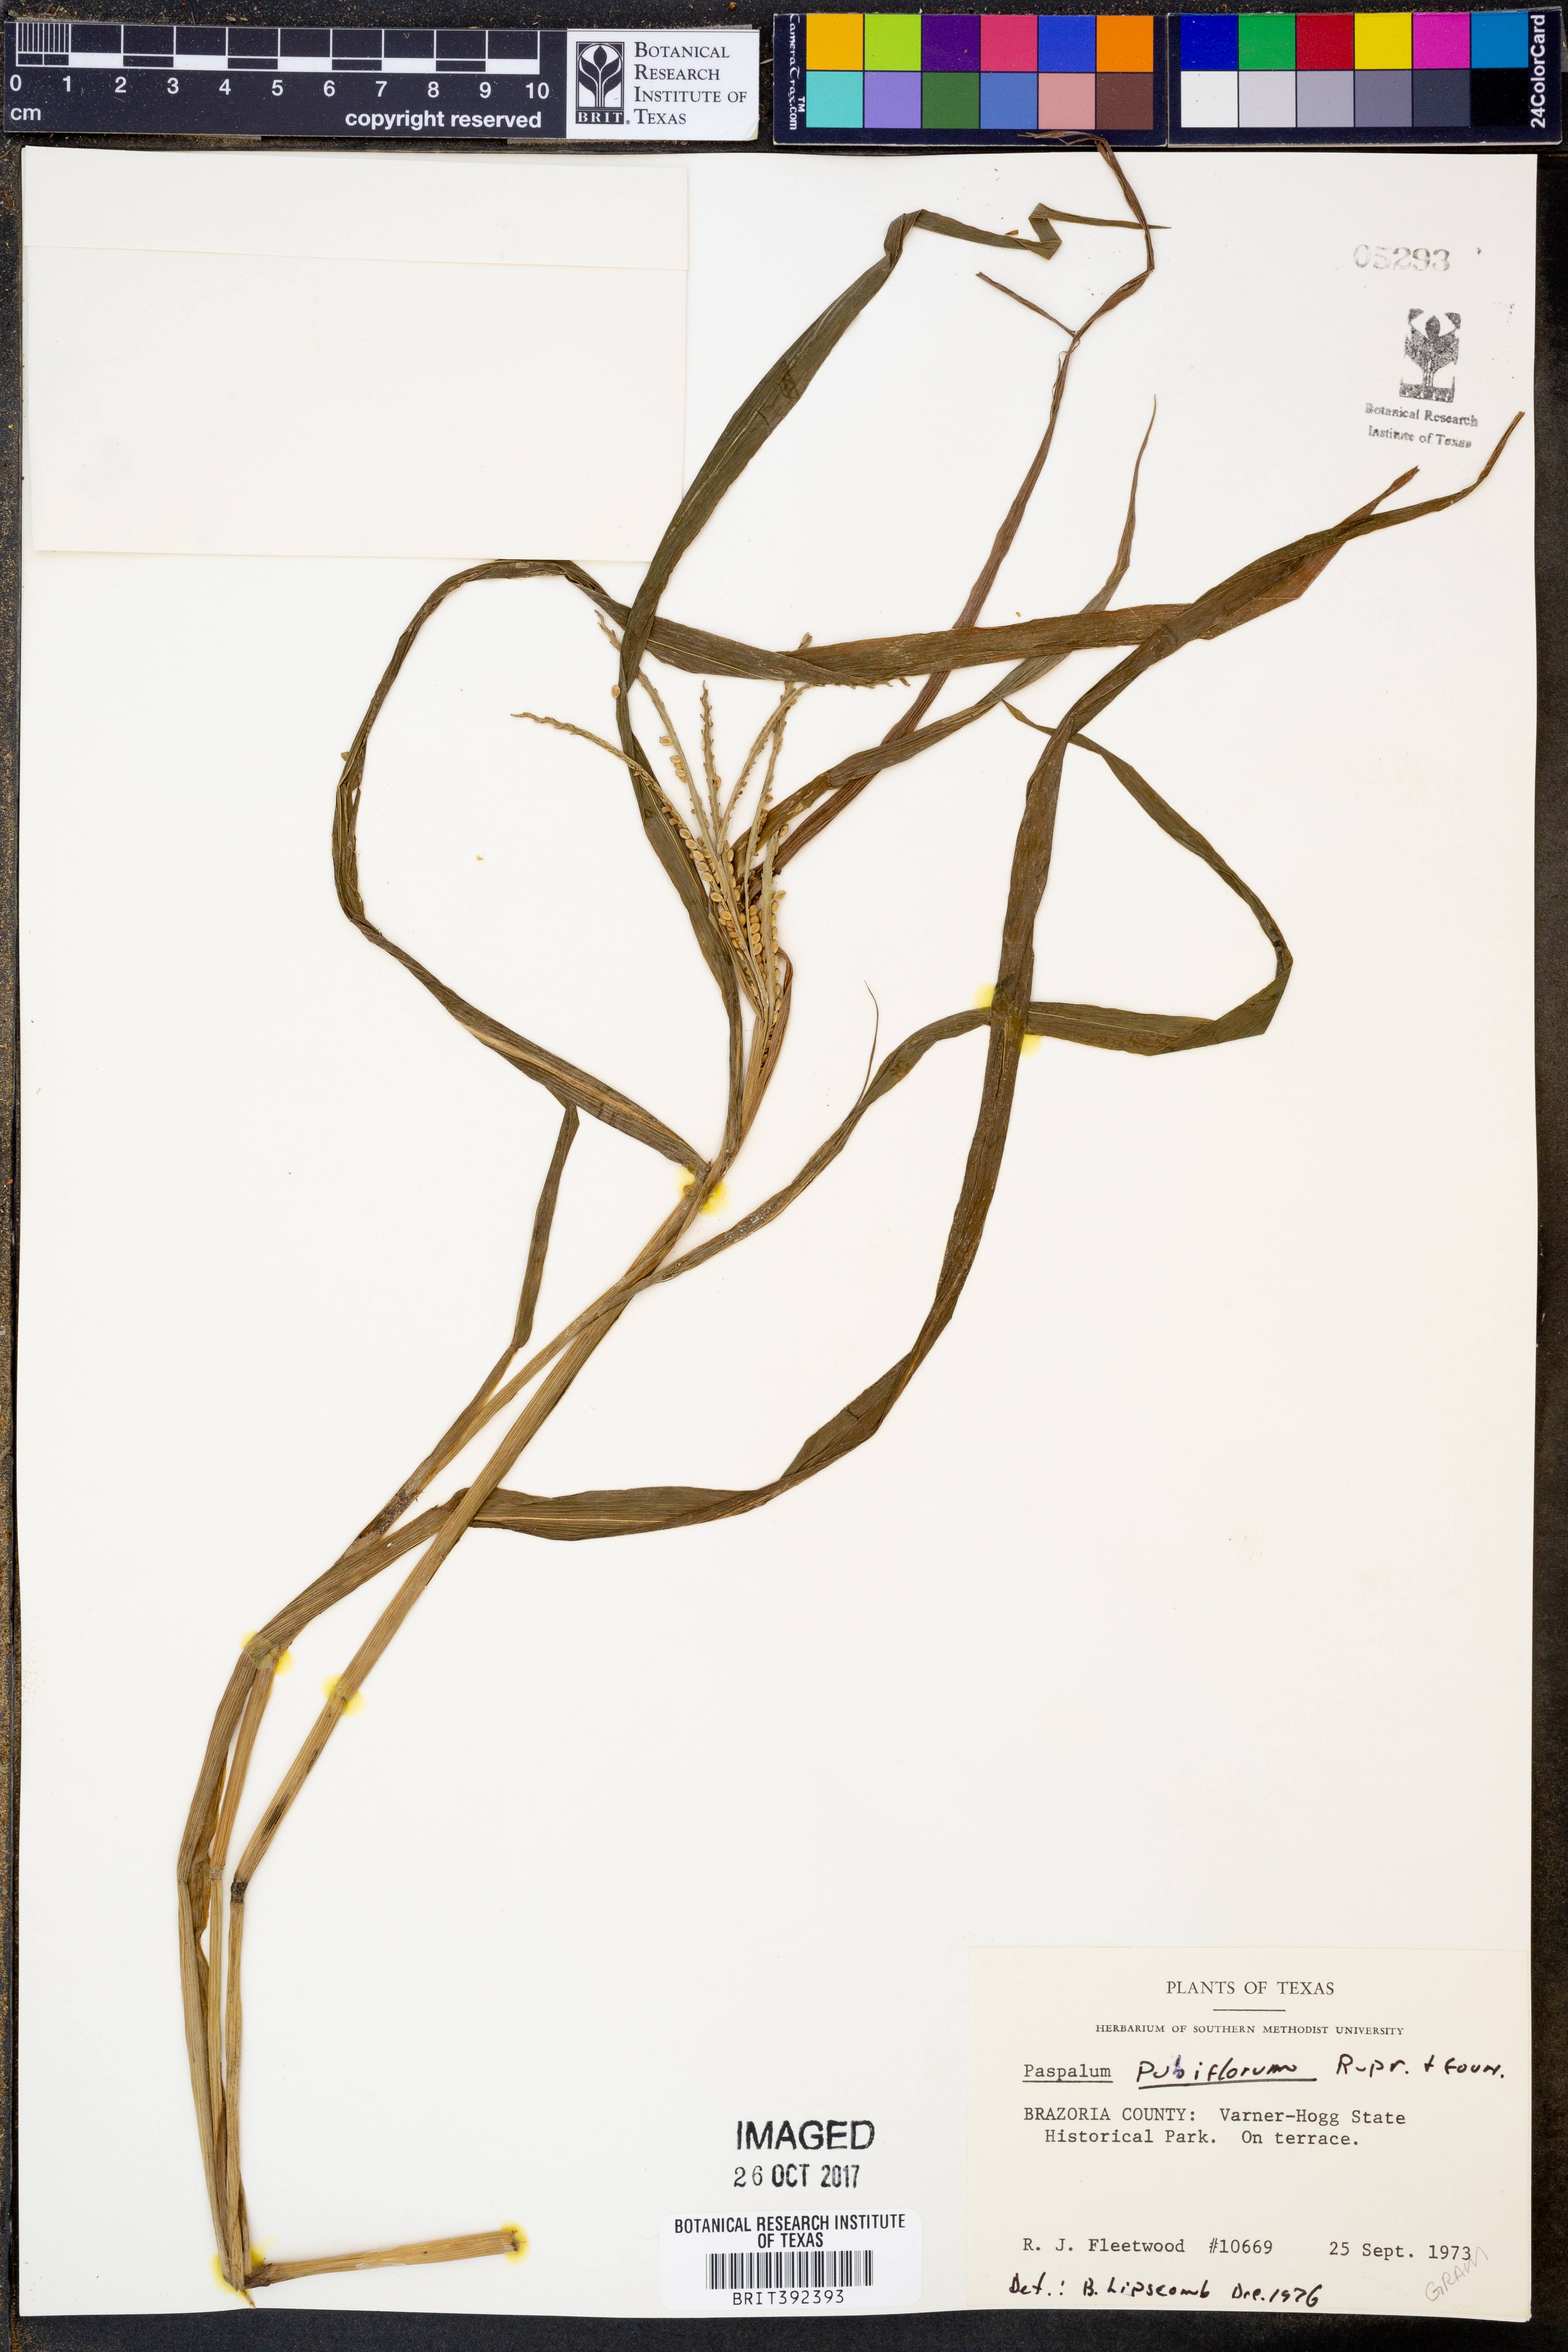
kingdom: Plantae
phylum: Tracheophyta
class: Liliopsida
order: Poales
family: Poaceae
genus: Paspalum
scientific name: Paspalum pubiflorum
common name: Hairy-seed paspalum
